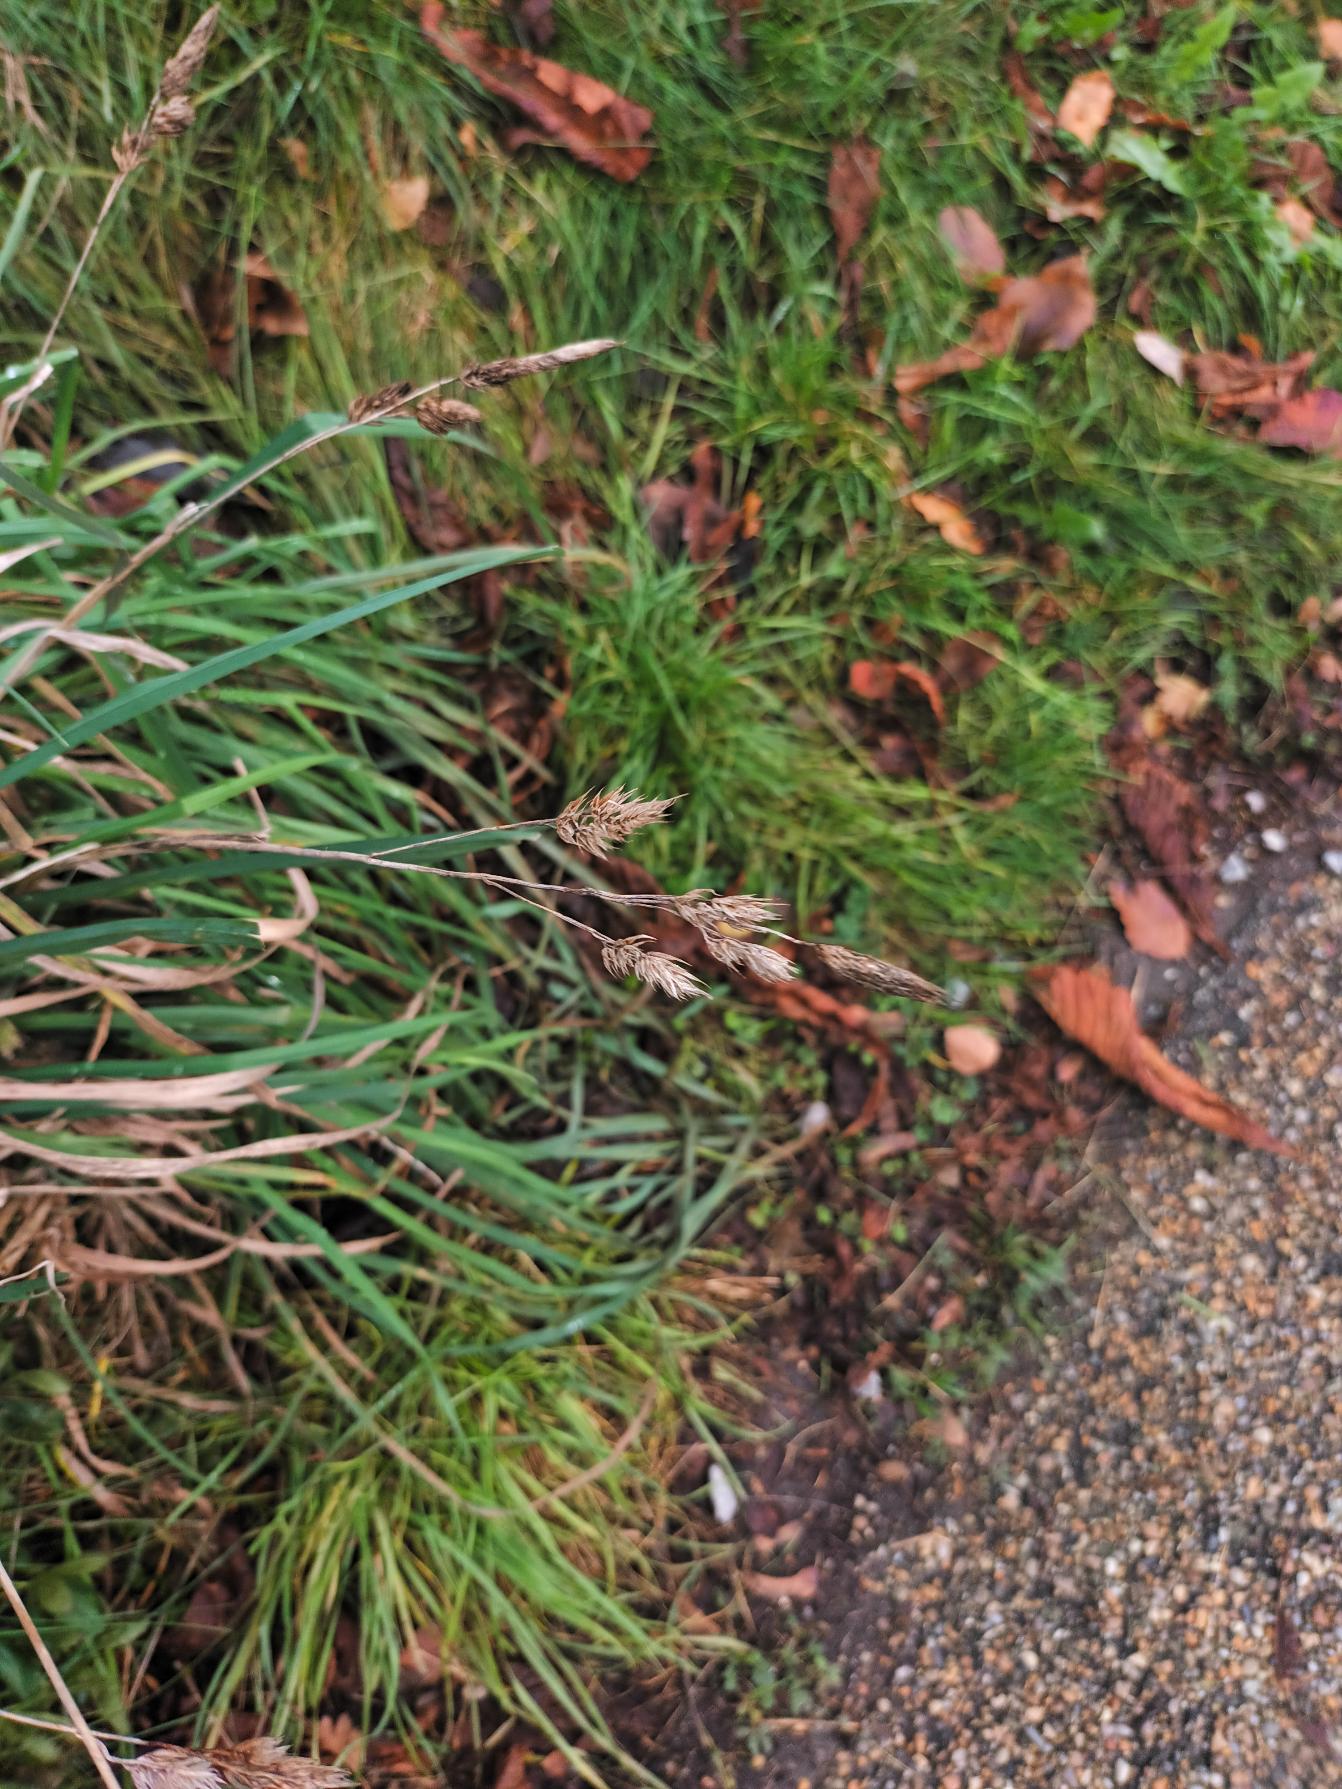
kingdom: Plantae
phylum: Tracheophyta
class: Liliopsida
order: Poales
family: Poaceae
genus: Dactylis
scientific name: Dactylis glomerata
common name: Almindelig hundegræs
